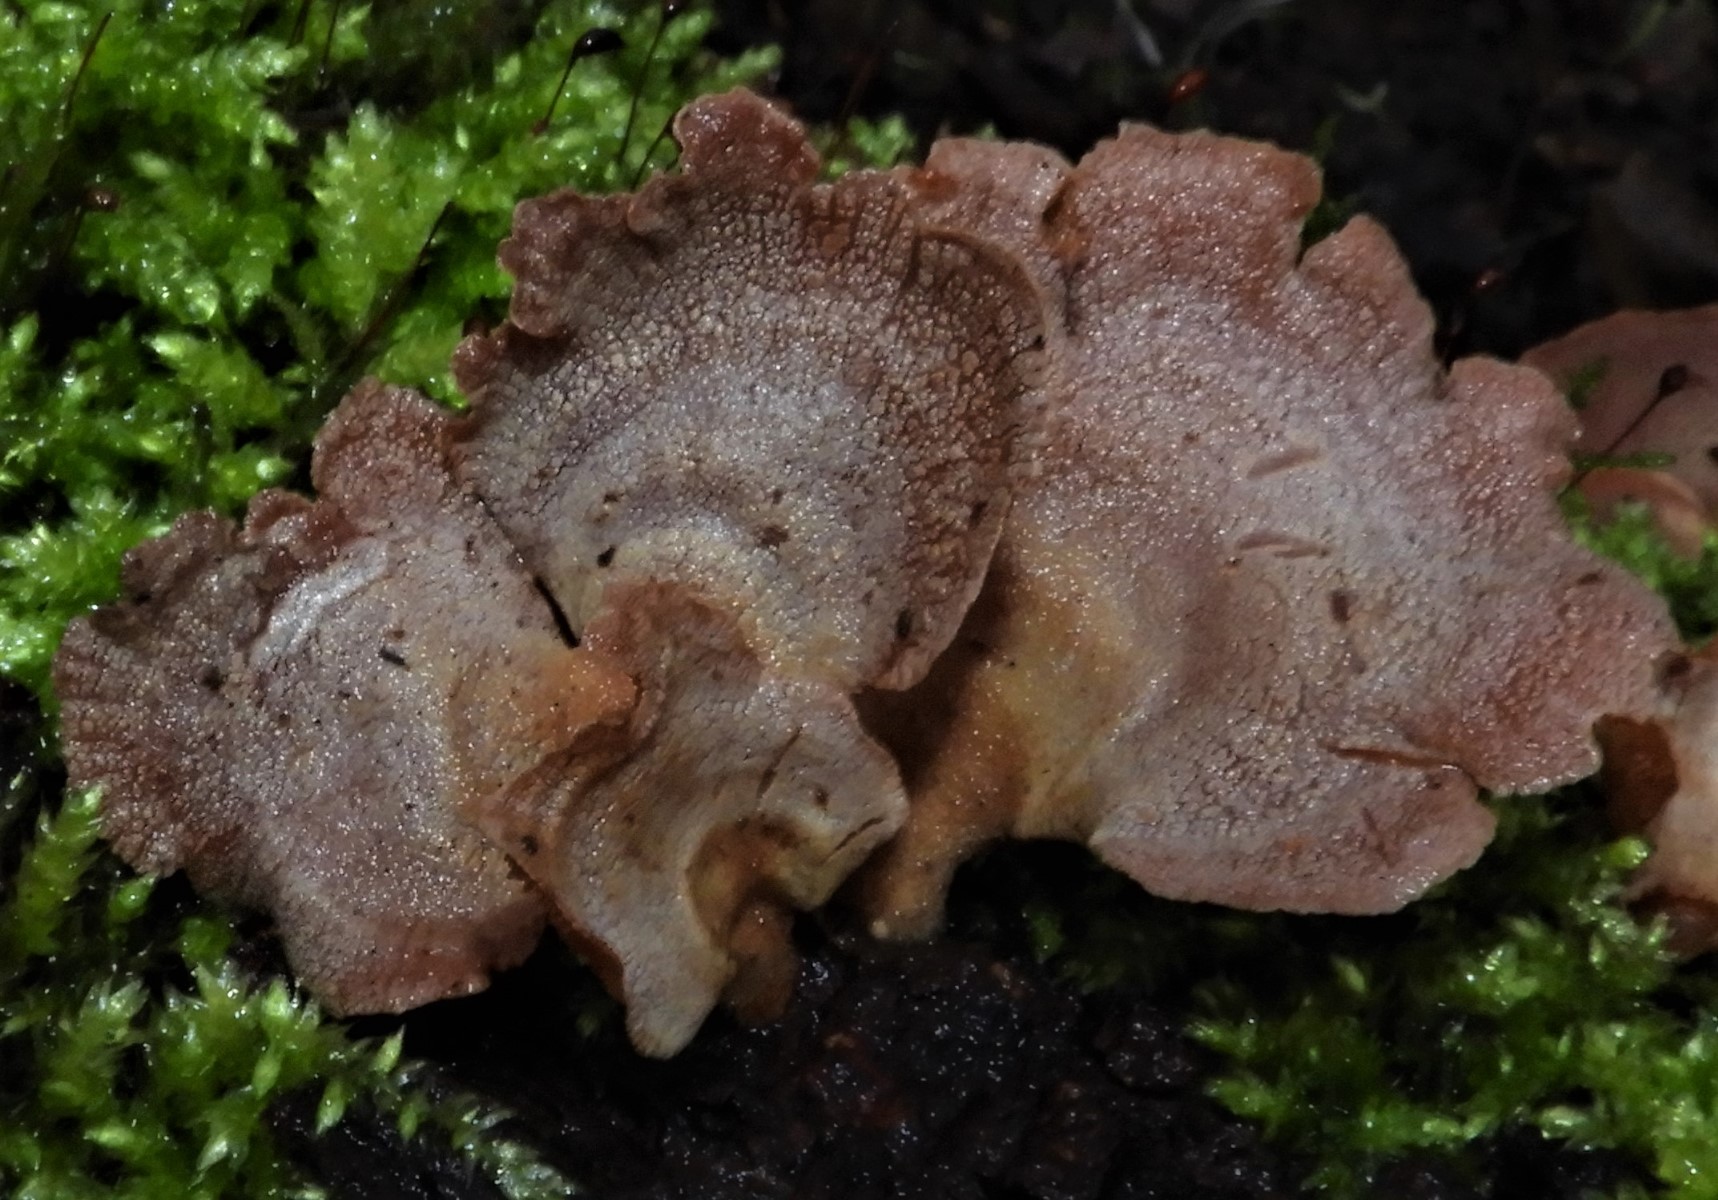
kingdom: Fungi
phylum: Basidiomycota
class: Agaricomycetes
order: Agaricales
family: Mycenaceae
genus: Panellus
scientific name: Panellus stipticus
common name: kliddet epaulethat
